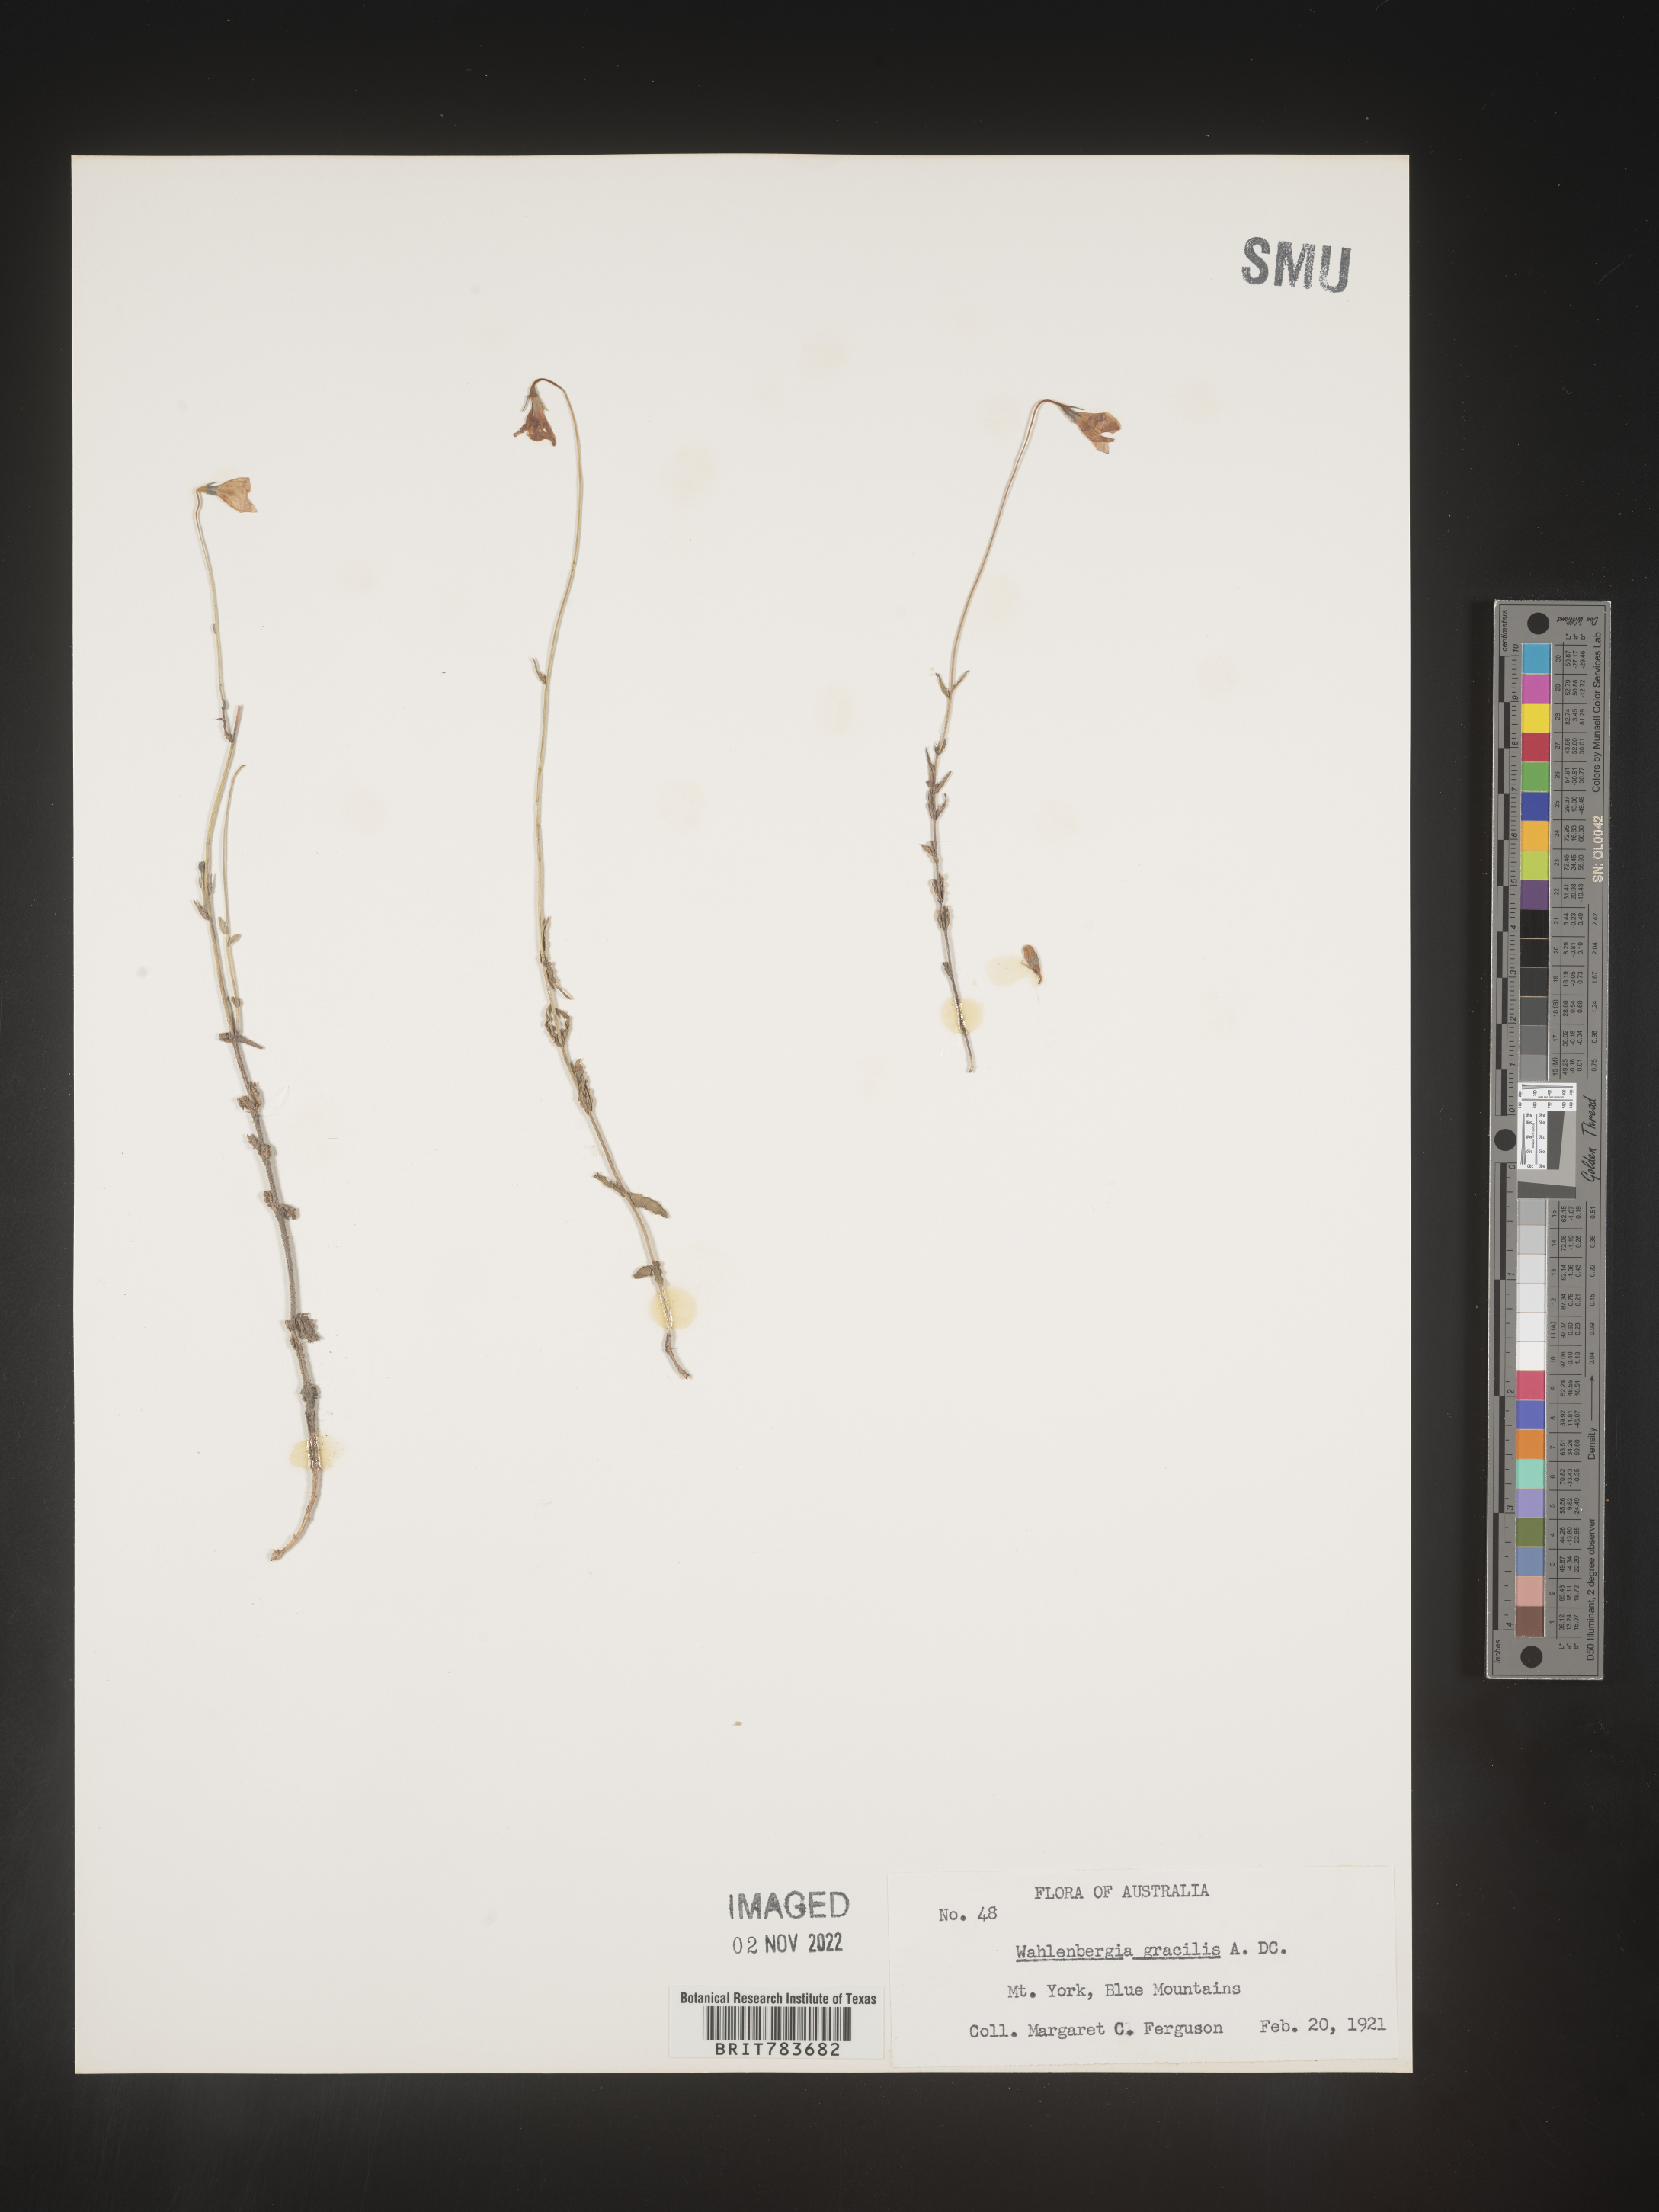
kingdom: Plantae
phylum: Tracheophyta
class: Magnoliopsida
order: Asterales
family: Campanulaceae
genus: Wahlenbergia
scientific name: Wahlenbergia
